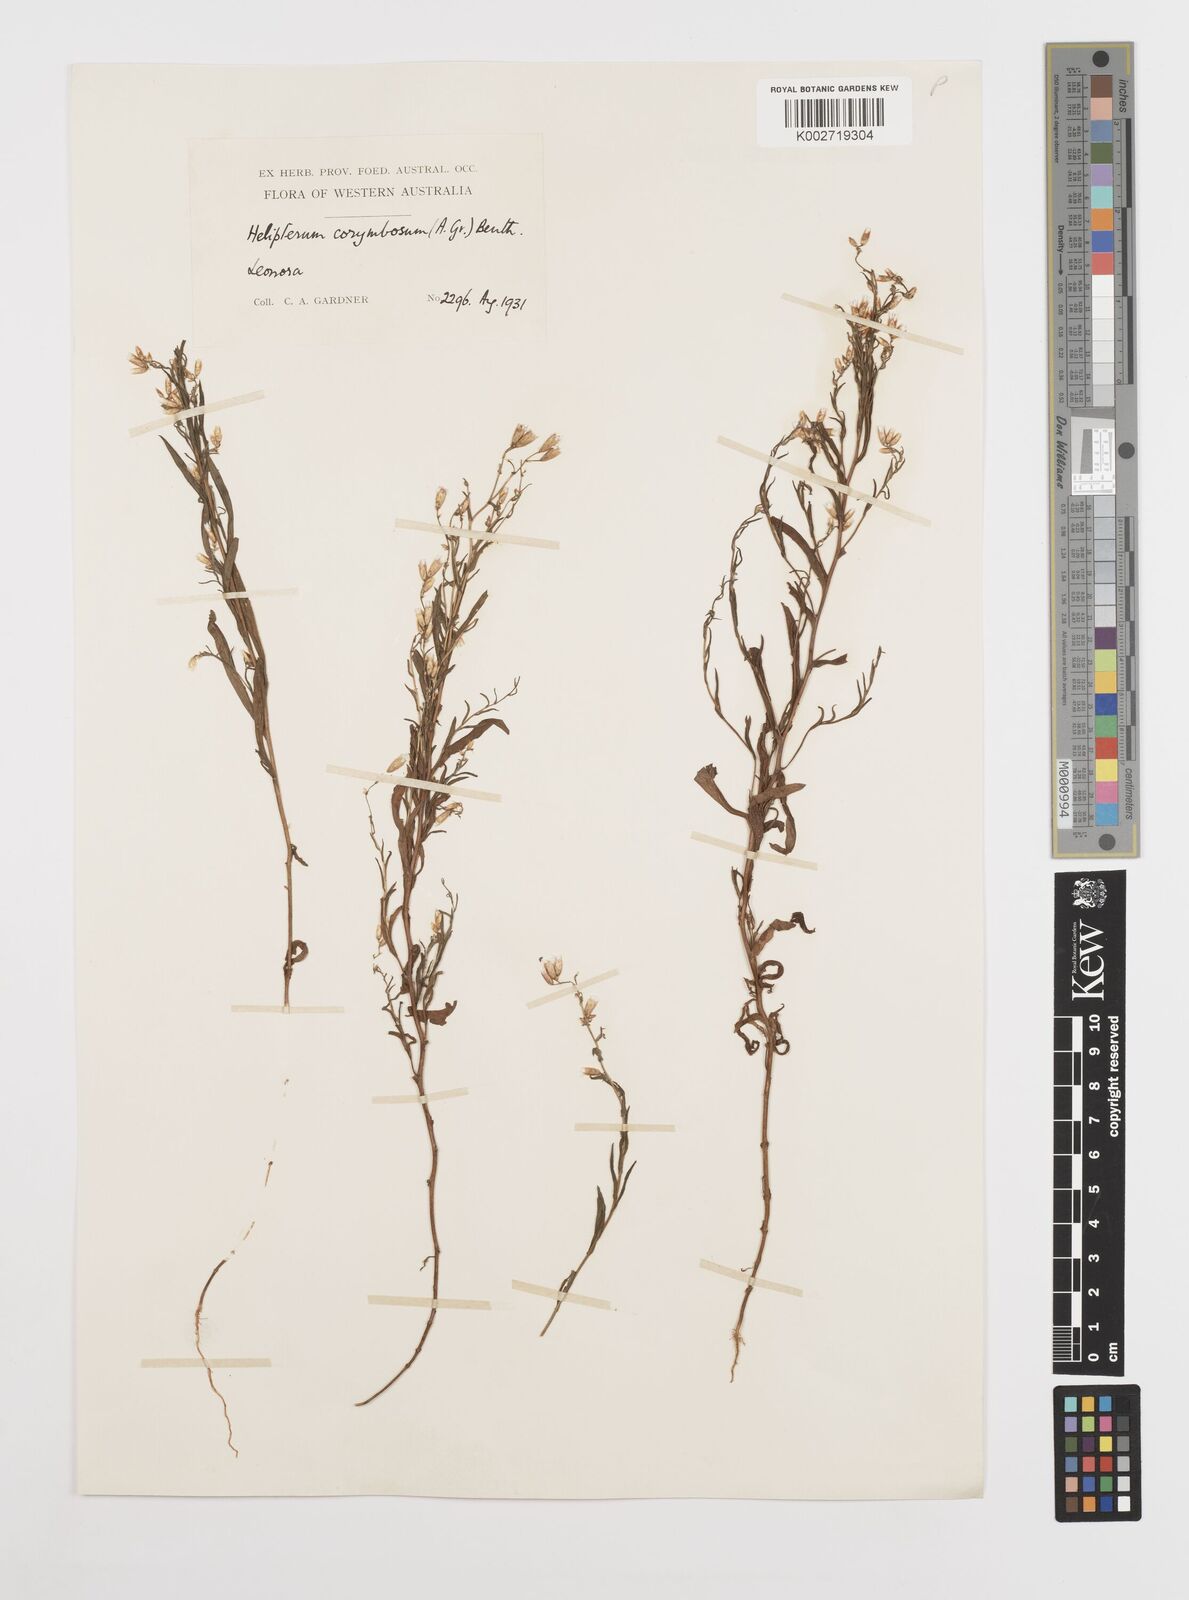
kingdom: Plantae
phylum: Tracheophyta
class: Magnoliopsida
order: Asterales
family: Asteraceae
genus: Rhodanthe
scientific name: Rhodanthe corymbosa
